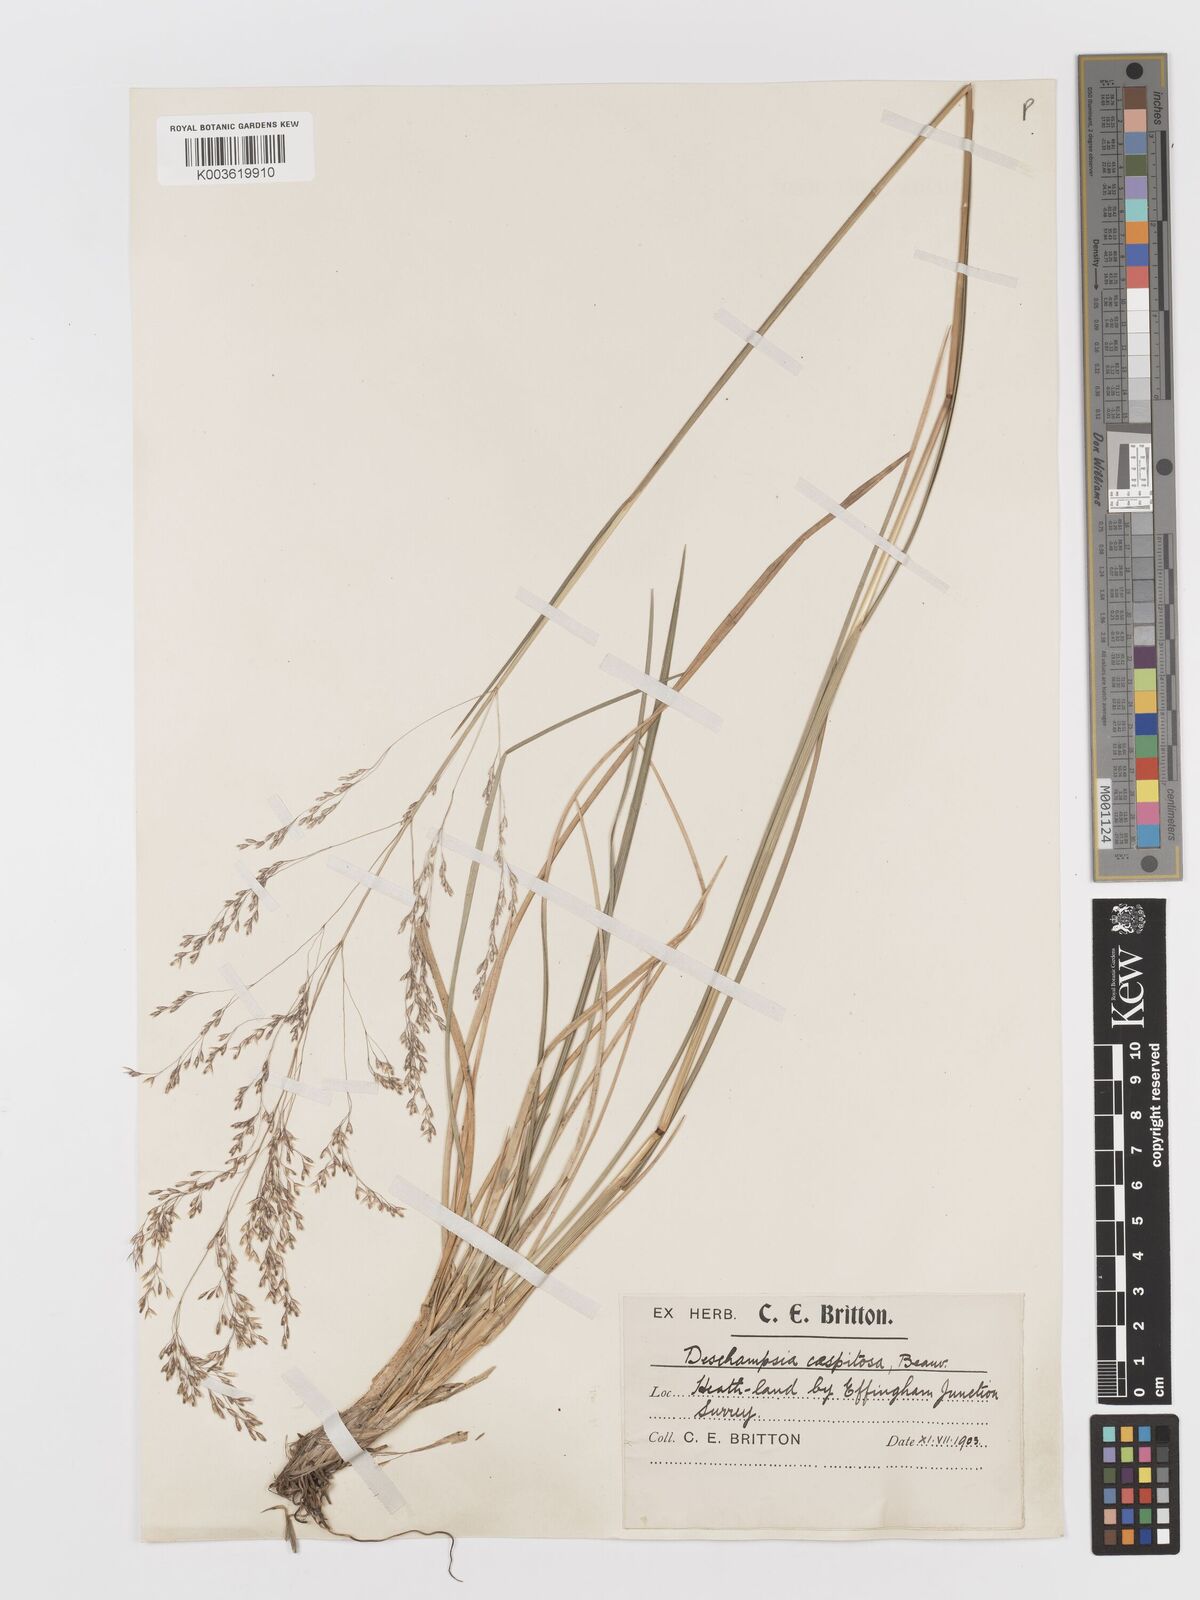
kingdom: Plantae
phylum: Tracheophyta
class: Liliopsida
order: Poales
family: Poaceae
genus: Deschampsia
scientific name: Deschampsia
